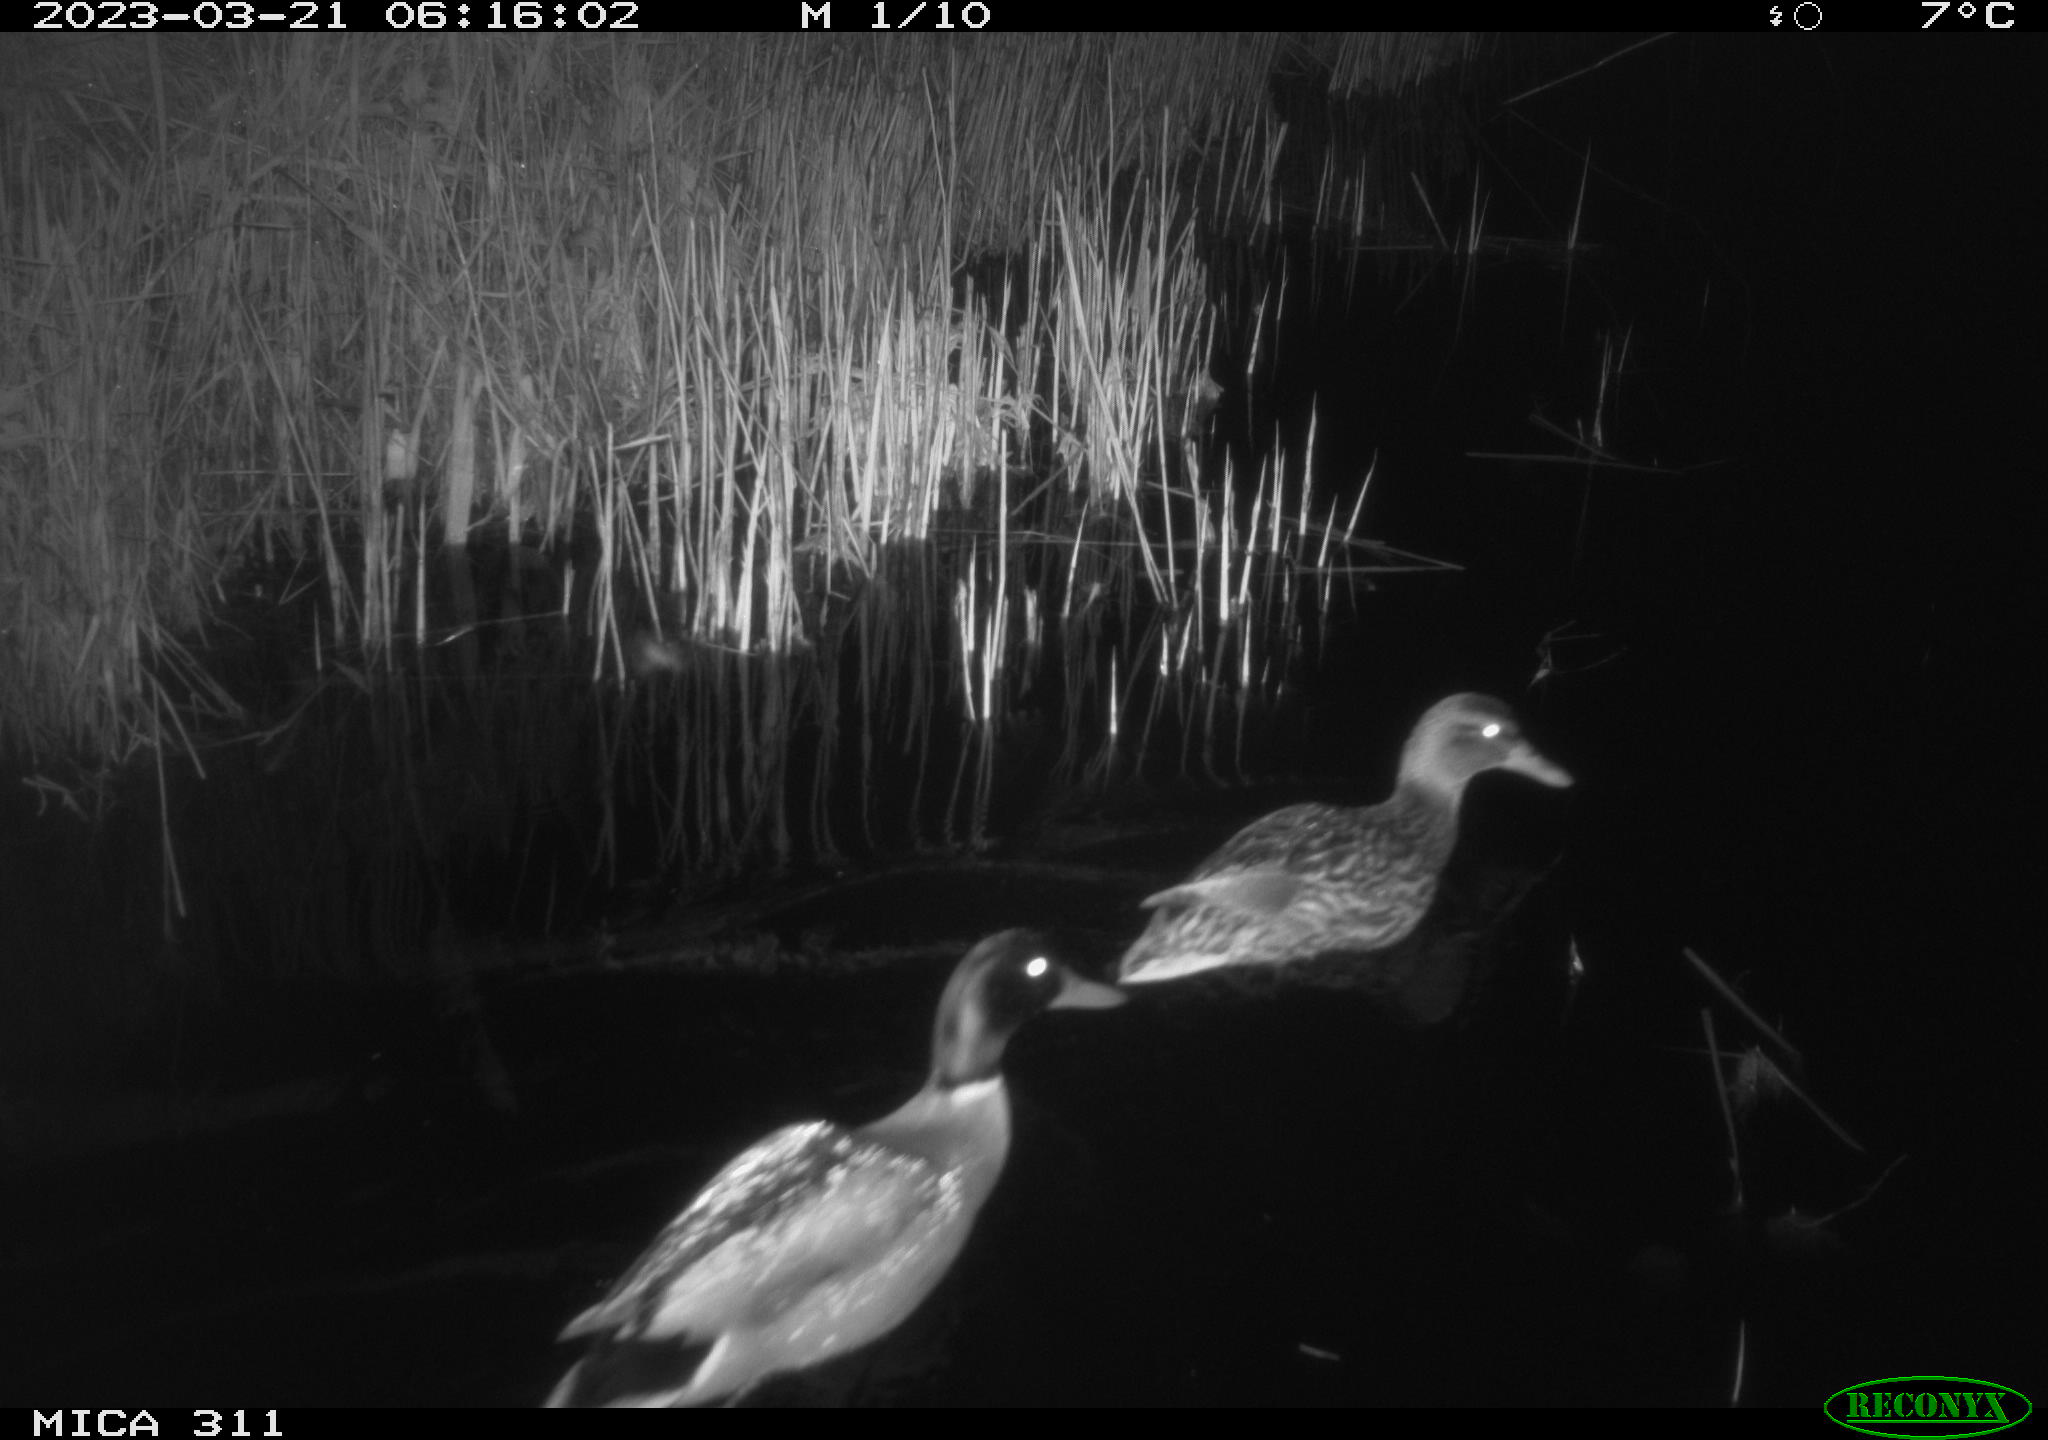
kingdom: Animalia
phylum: Chordata
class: Aves
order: Anseriformes
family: Anatidae
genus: Anas
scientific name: Anas
